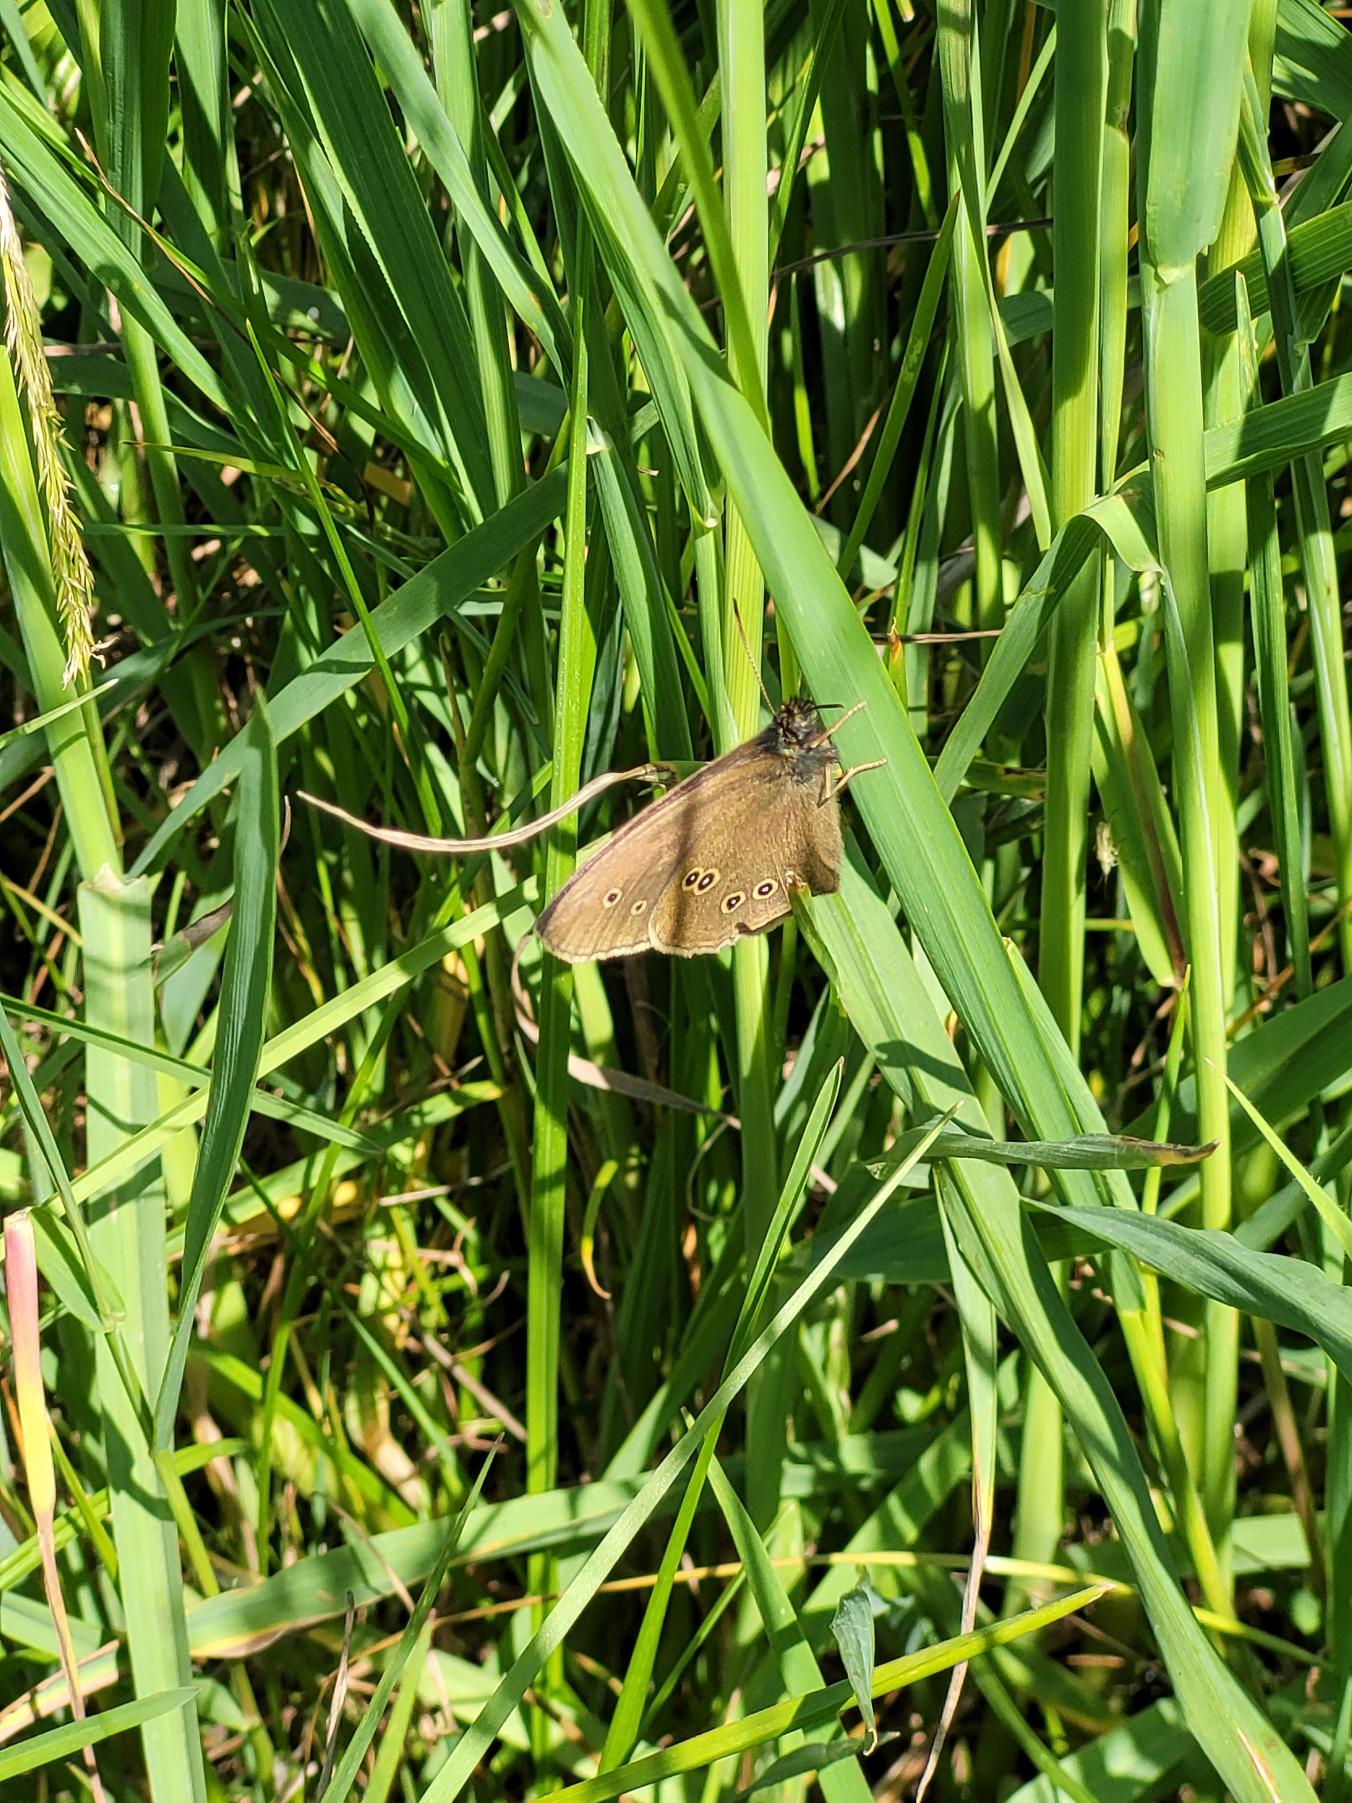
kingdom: Animalia
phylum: Arthropoda
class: Insecta
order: Lepidoptera
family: Nymphalidae
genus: Aphantopus
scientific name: Aphantopus hyperantus
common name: Engrandøje
